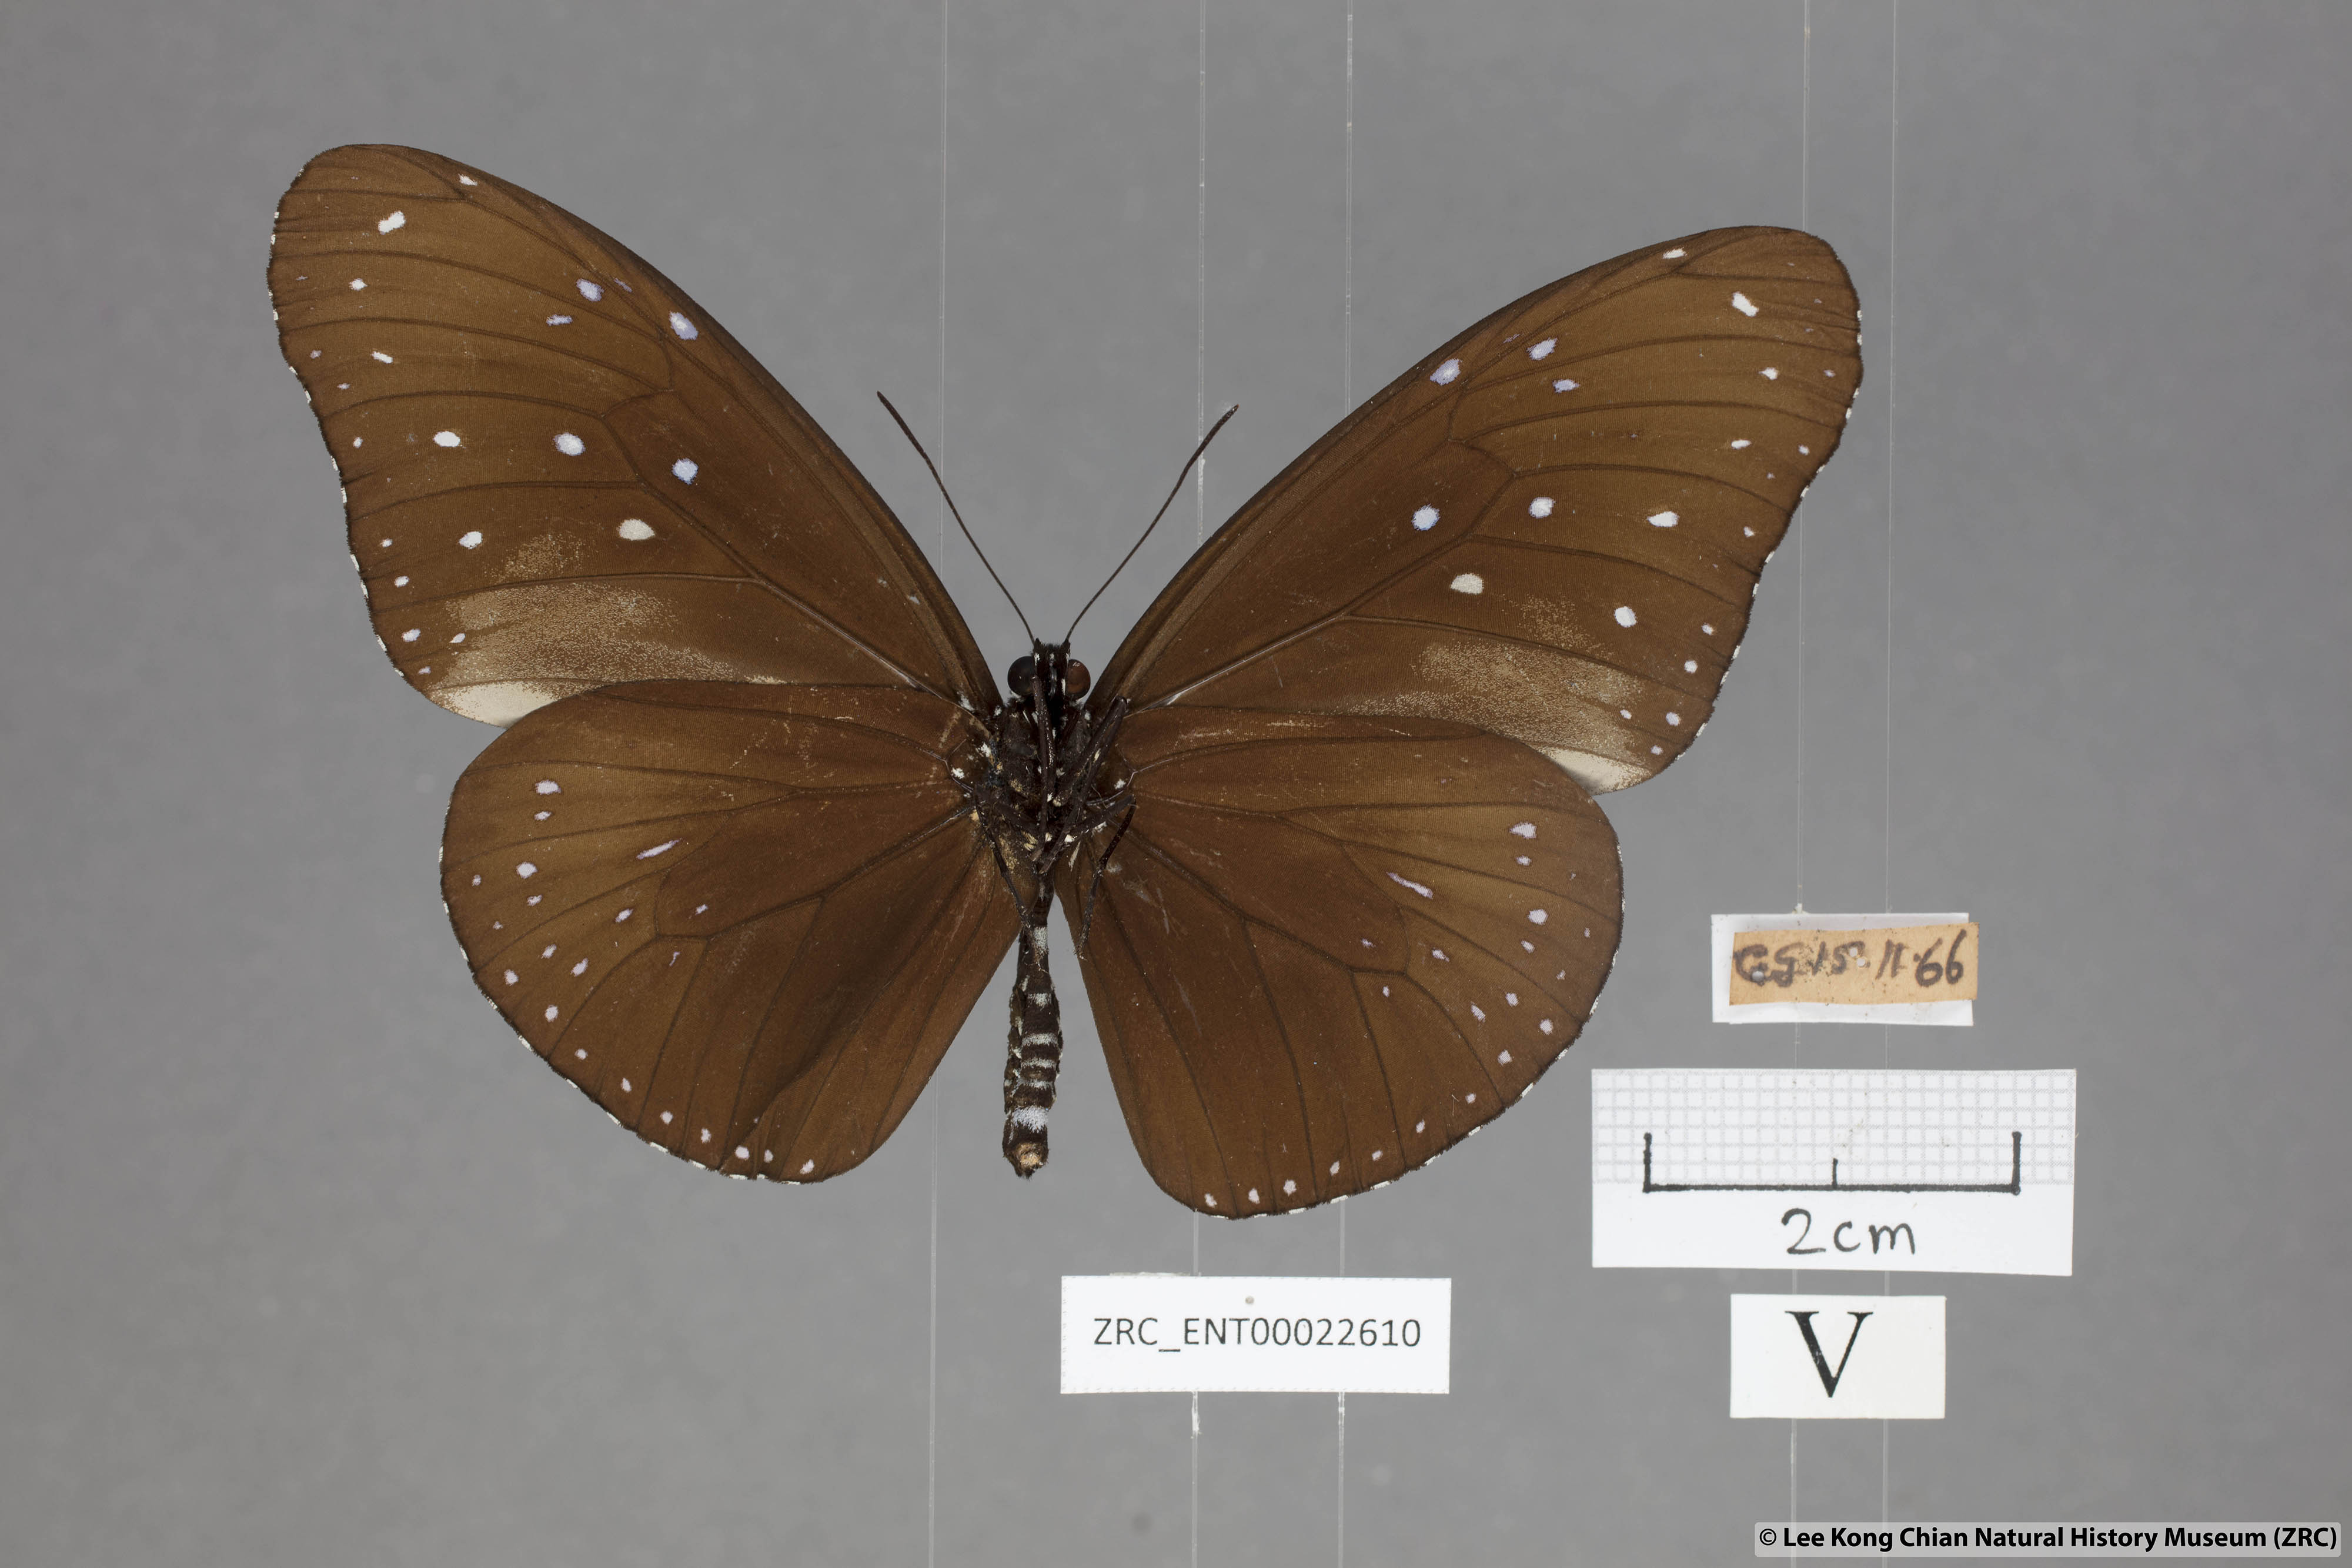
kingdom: Animalia
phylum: Arthropoda
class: Insecta
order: Lepidoptera
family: Nymphalidae
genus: Euploea
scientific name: Euploea mulciber
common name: Striped blue crow butterfly
